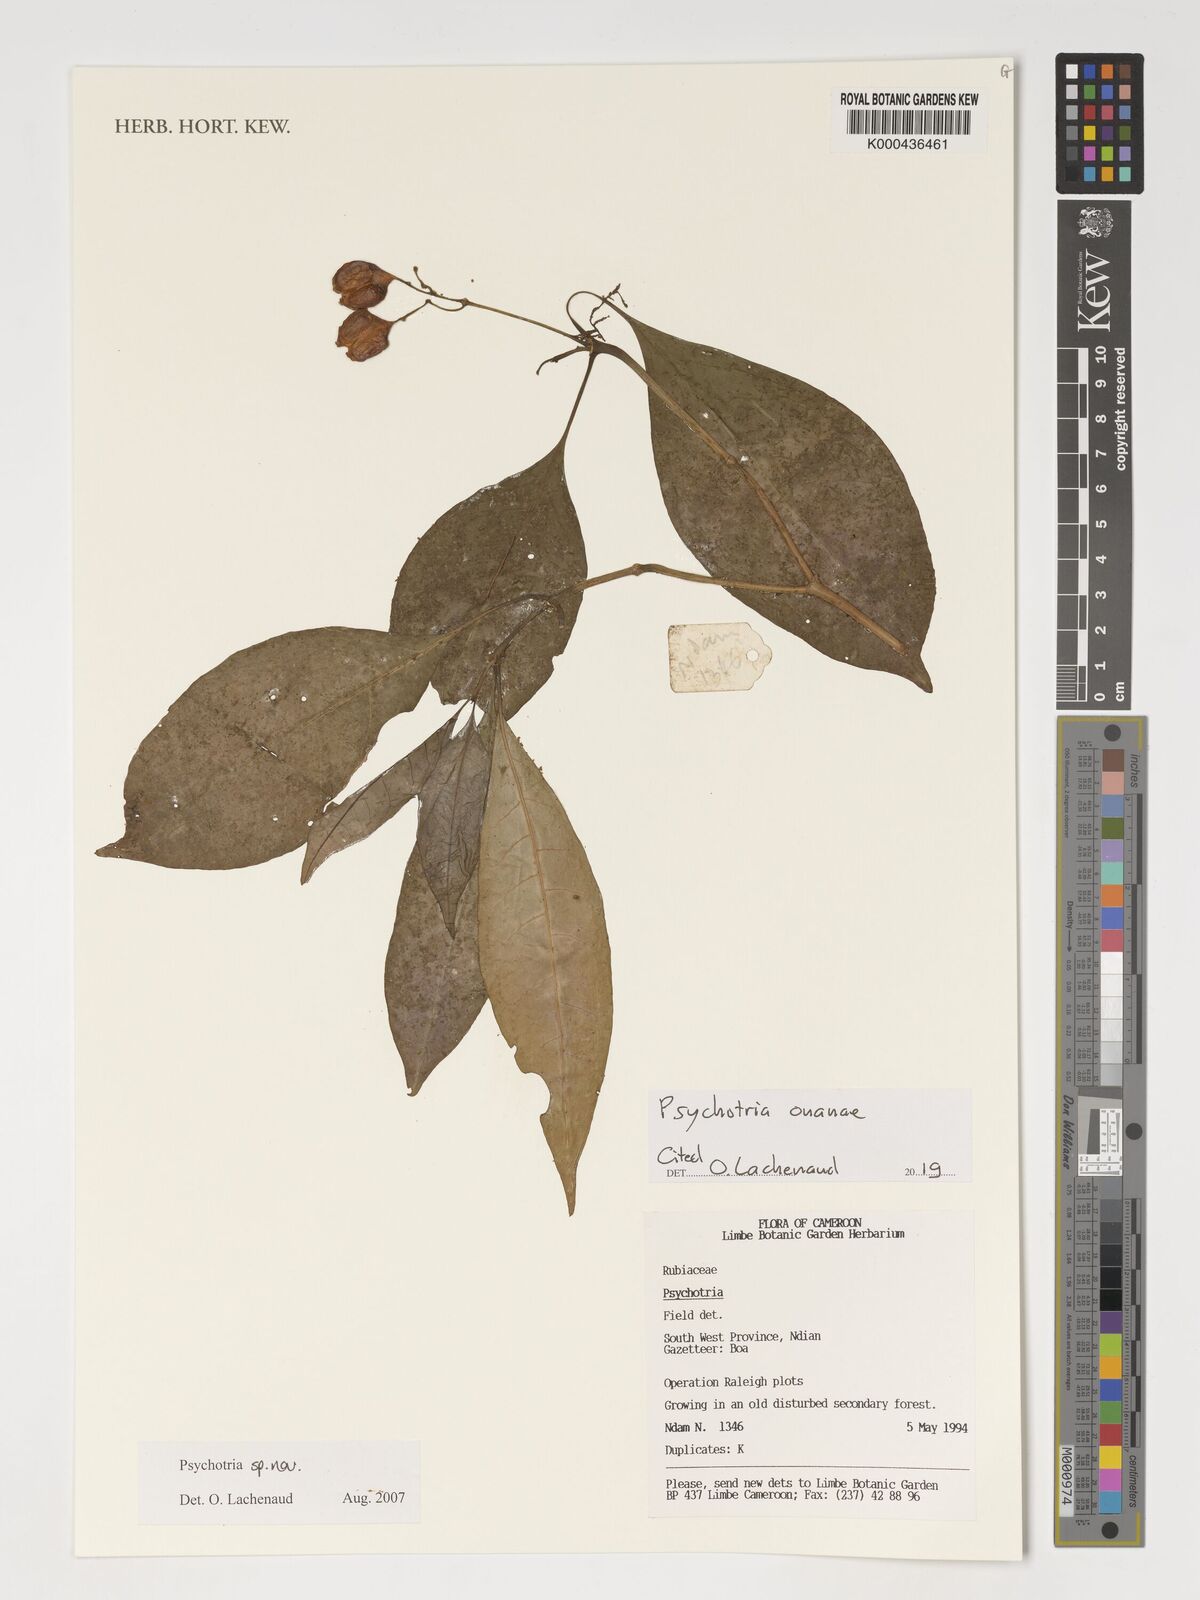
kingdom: Plantae
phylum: Tracheophyta
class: Magnoliopsida
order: Gentianales
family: Rubiaceae
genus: Psychotria
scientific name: Psychotria onanae
